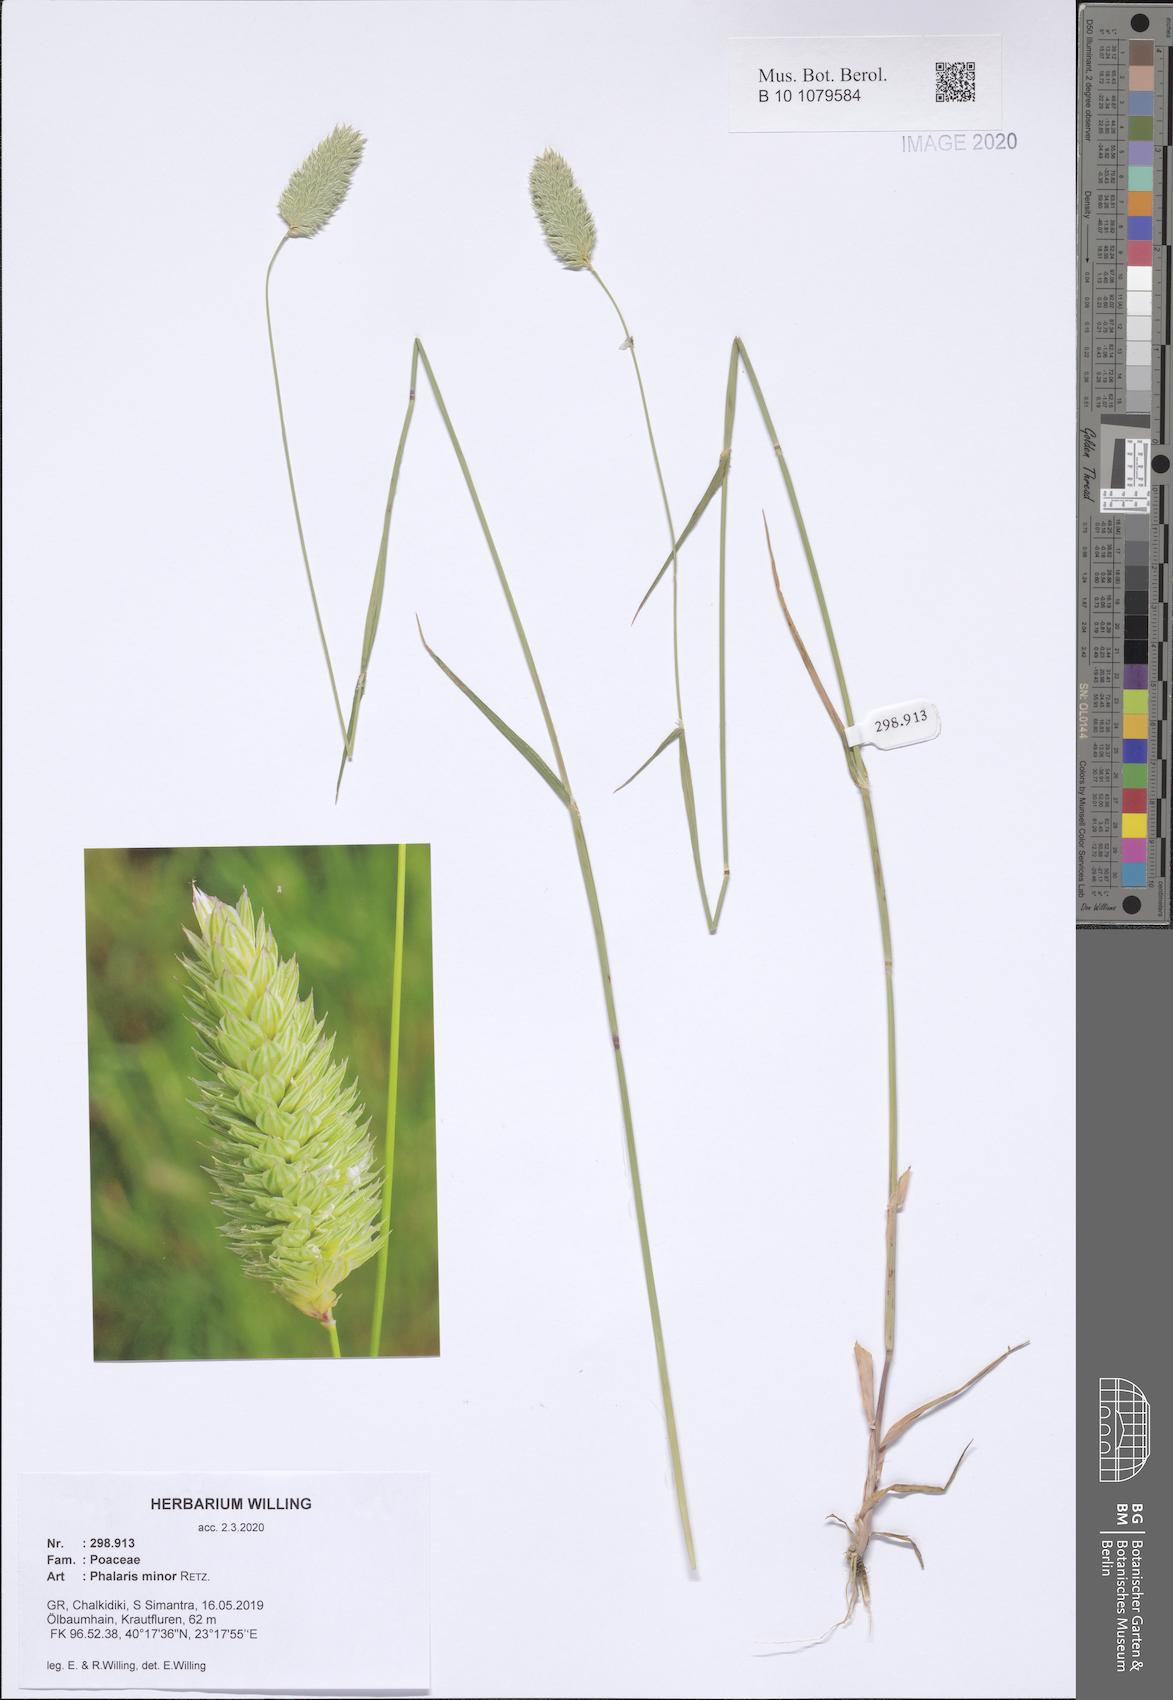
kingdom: Plantae
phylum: Tracheophyta
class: Liliopsida
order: Poales
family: Poaceae
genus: Phalaris
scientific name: Phalaris minor
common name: Littleseed canarygrass
